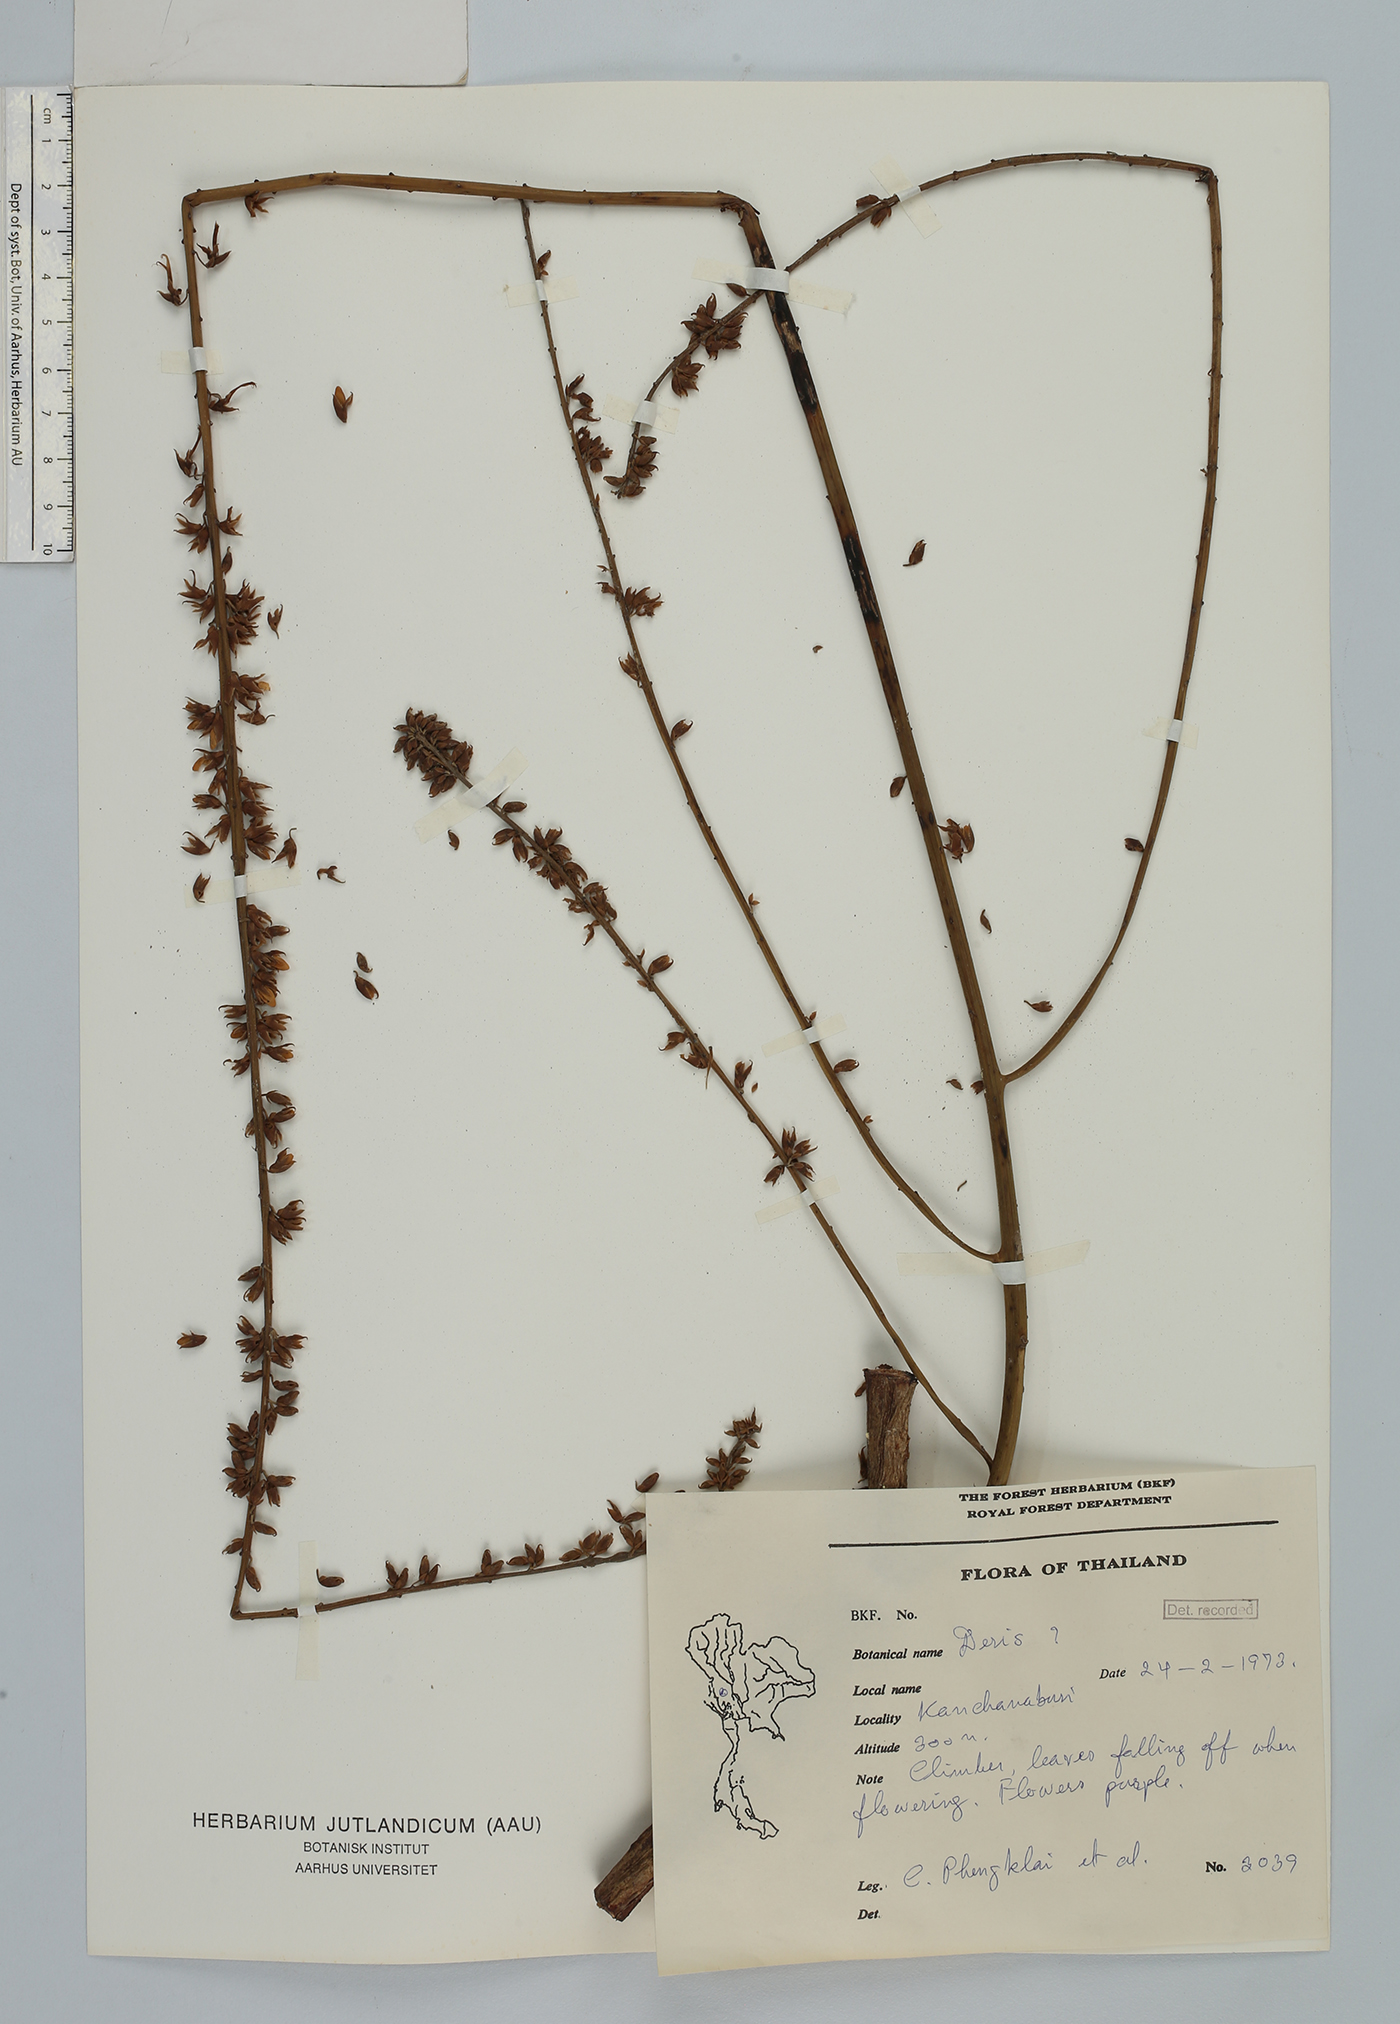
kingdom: Plantae
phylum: Tracheophyta
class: Magnoliopsida
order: Fabales
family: Fabaceae
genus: Derris
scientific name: Derris
